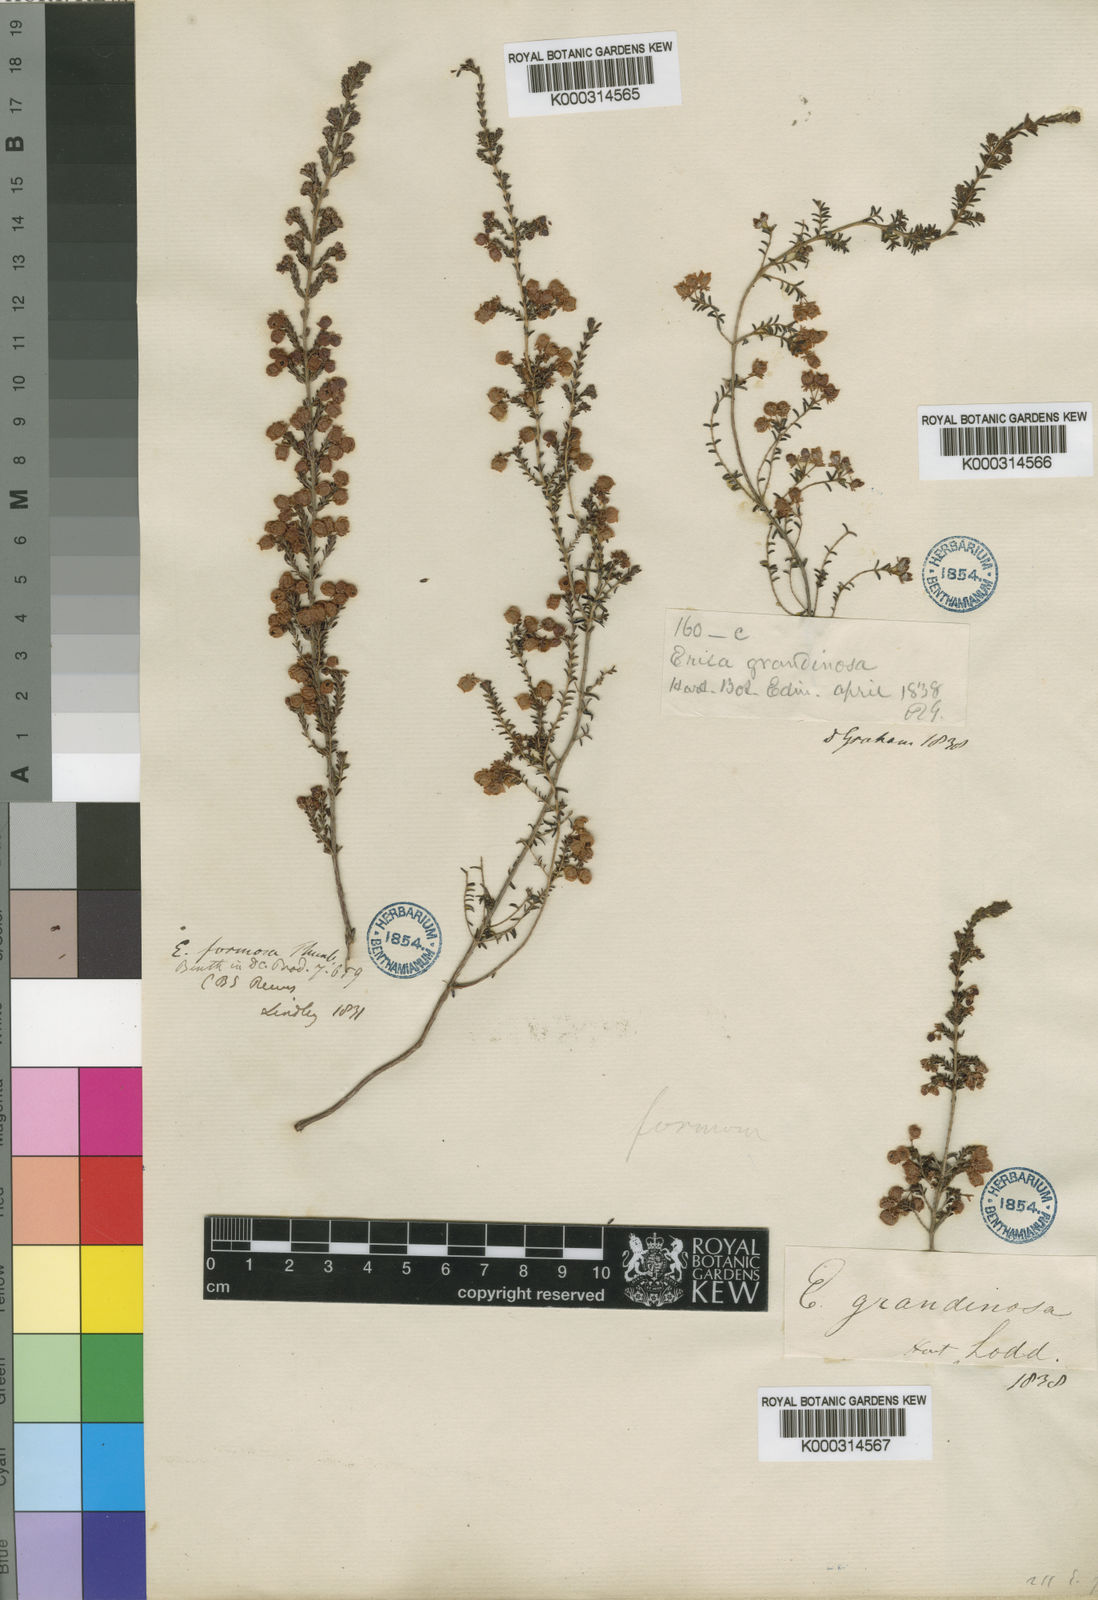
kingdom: Plantae
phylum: Tracheophyta
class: Magnoliopsida
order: Ericales
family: Ericaceae
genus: Erica
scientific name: Erica formosa
